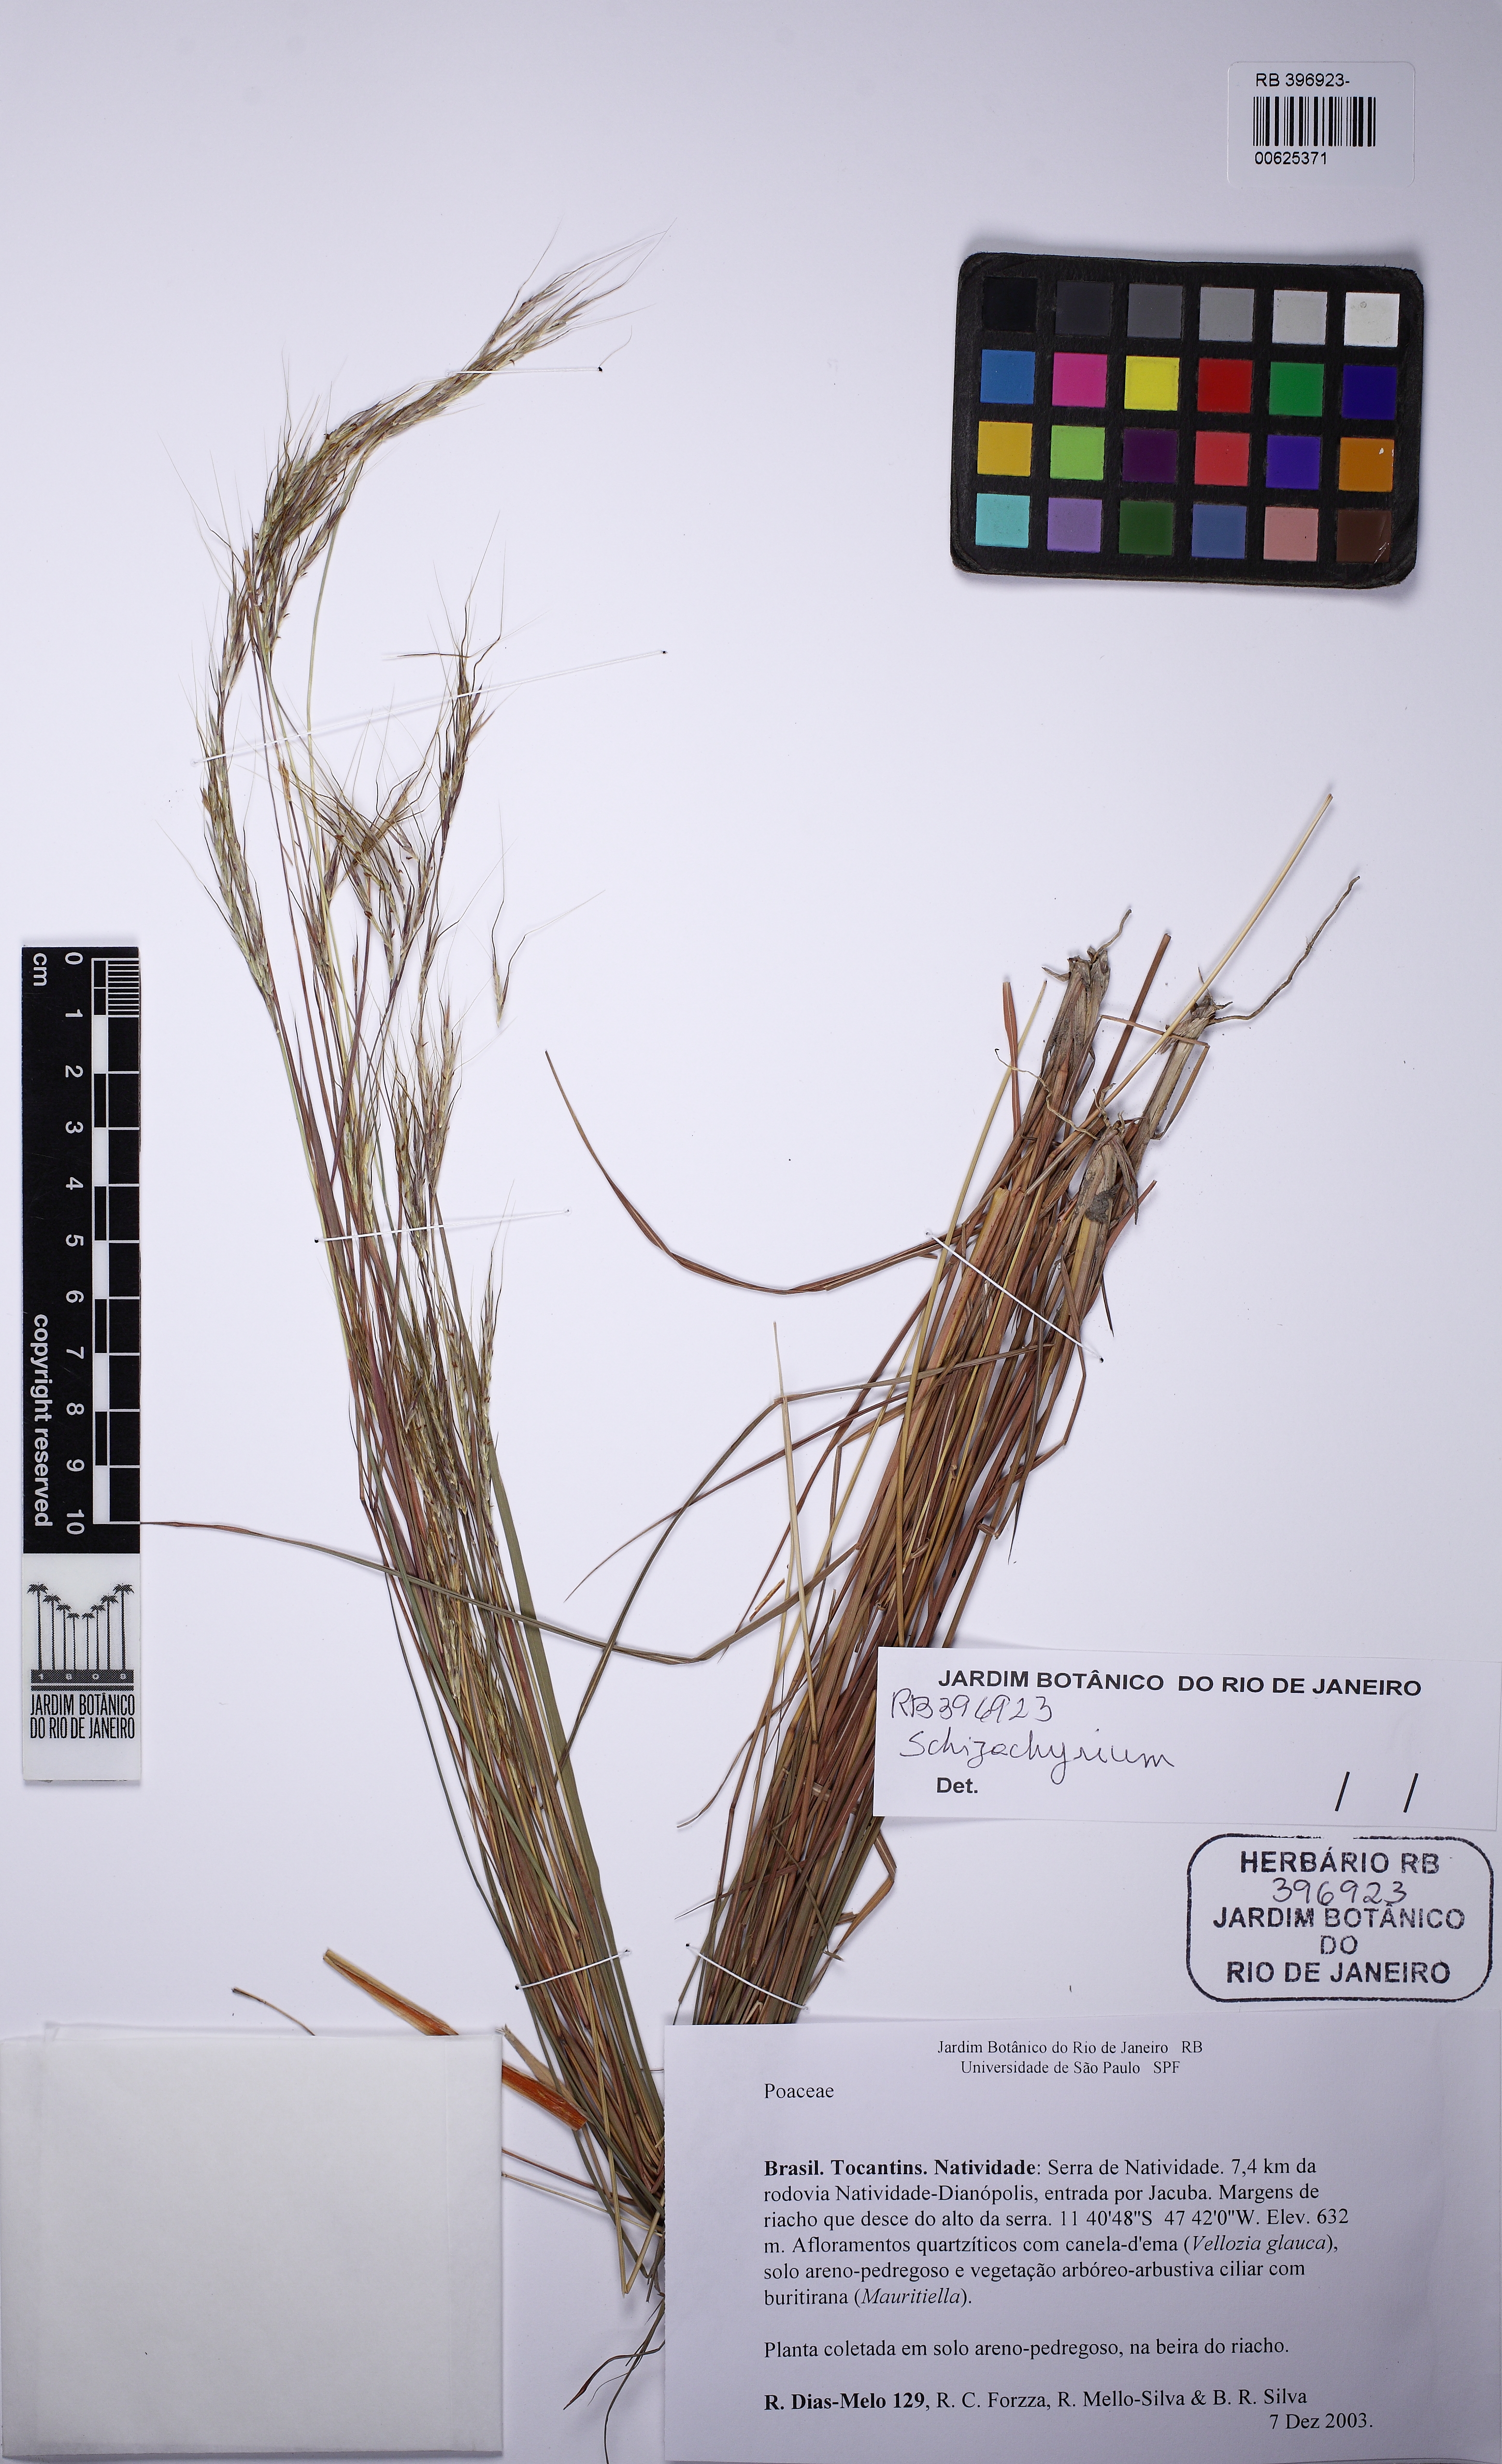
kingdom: Plantae
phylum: Tracheophyta
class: Liliopsida
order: Poales
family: Poaceae
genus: Schizachyrium
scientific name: Schizachyrium
